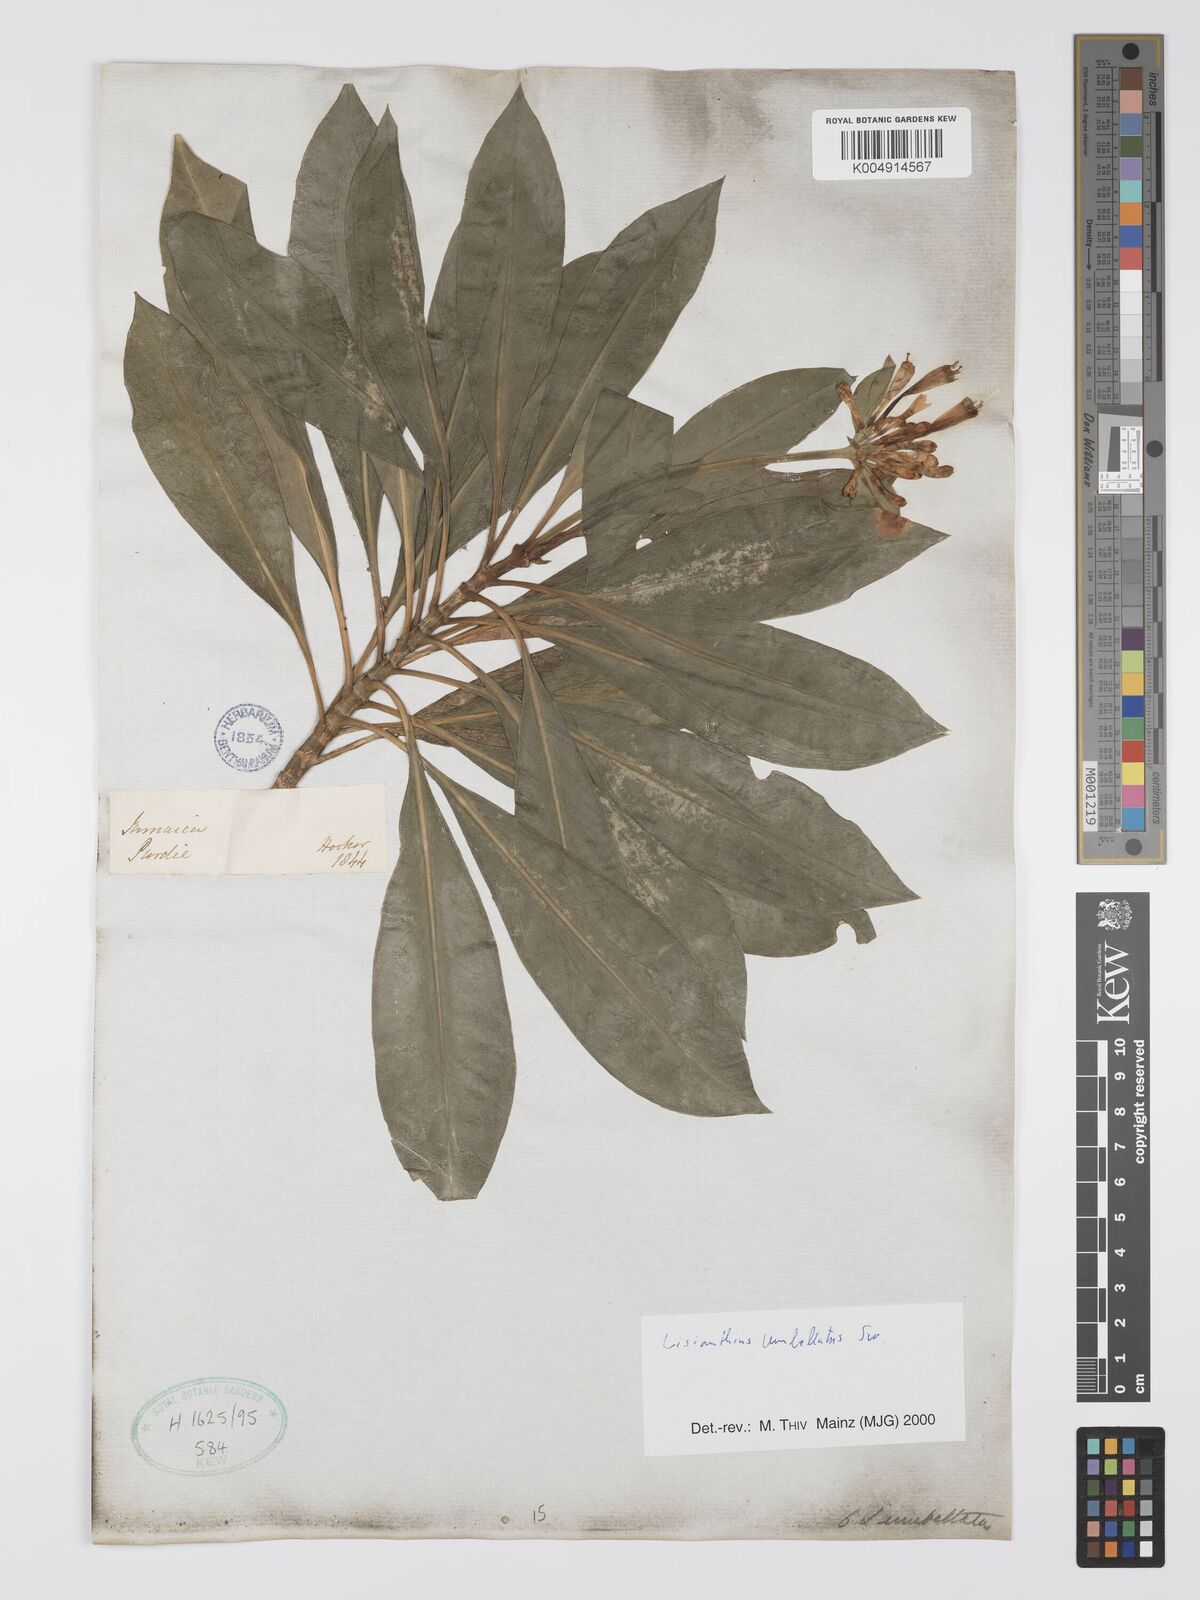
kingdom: Plantae
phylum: Tracheophyta
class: Magnoliopsida
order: Gentianales
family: Gentianaceae
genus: Lisianthus
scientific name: Lisianthus umbellatus
